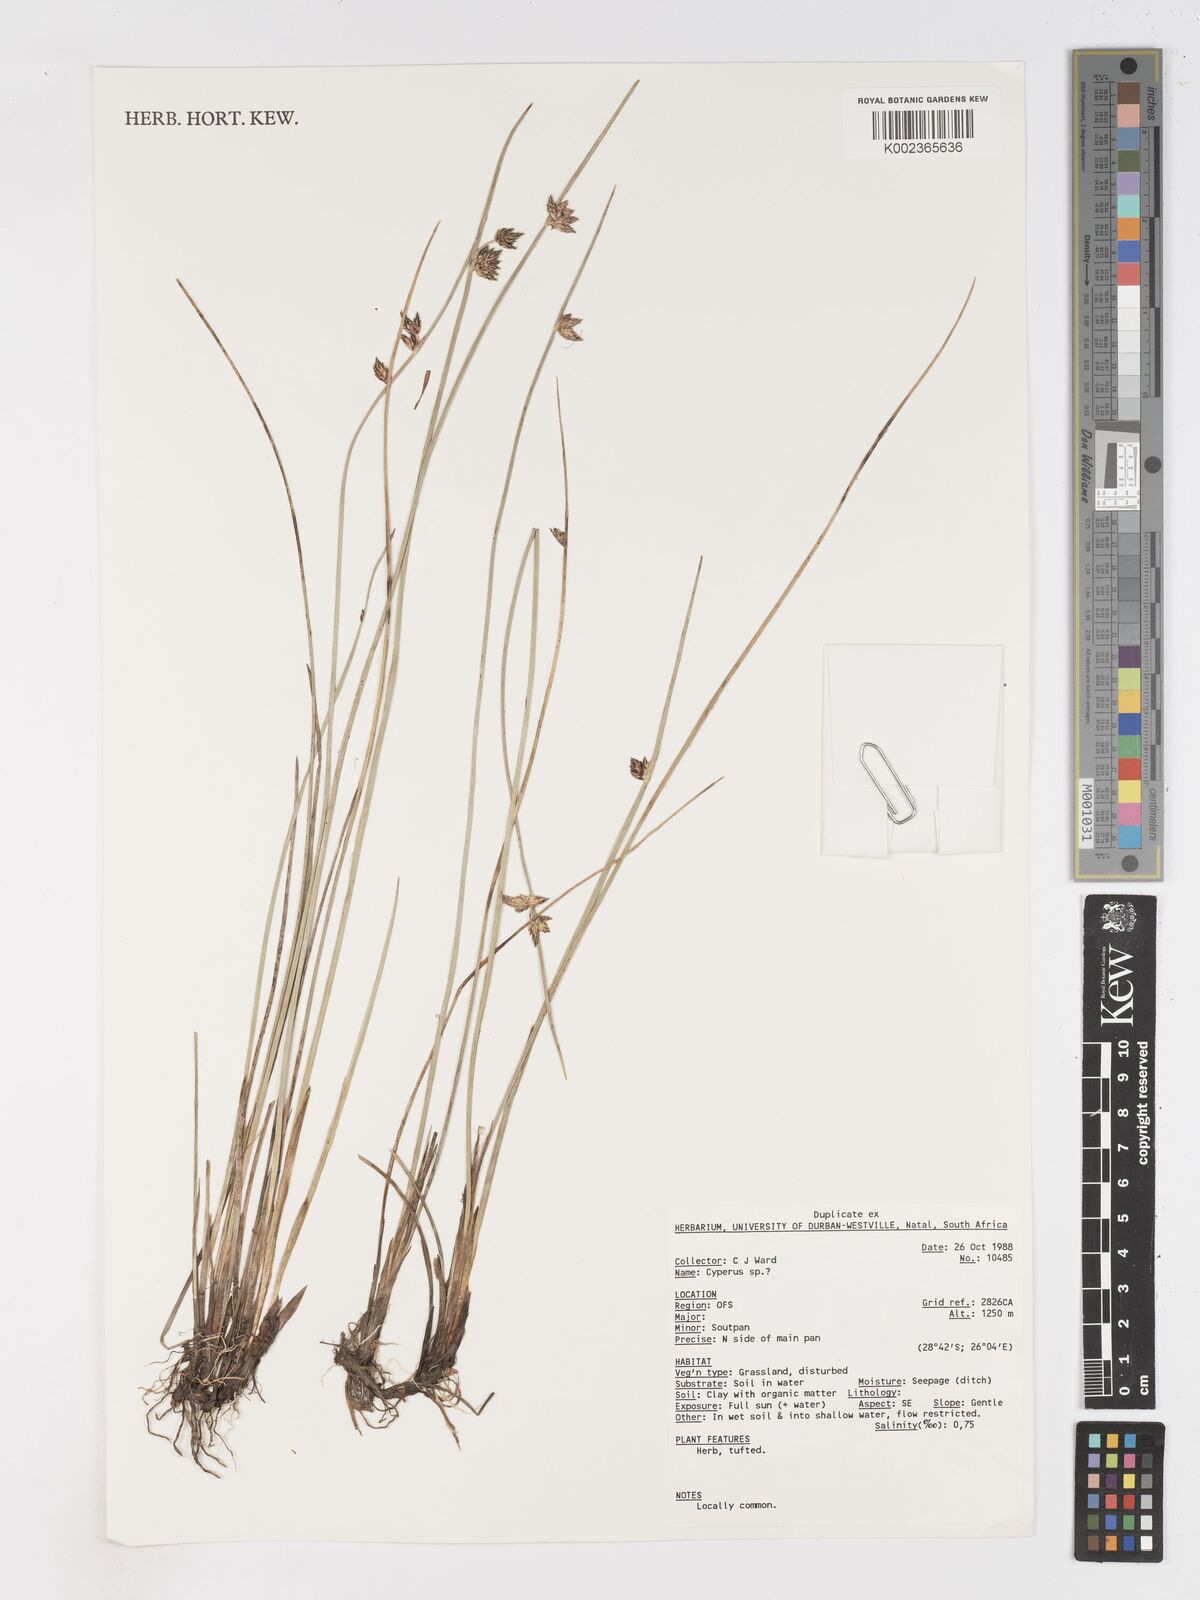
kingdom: Plantae
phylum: Tracheophyta
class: Liliopsida
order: Poales
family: Cyperaceae
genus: Schoenoplectus
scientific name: Schoenoplectus
